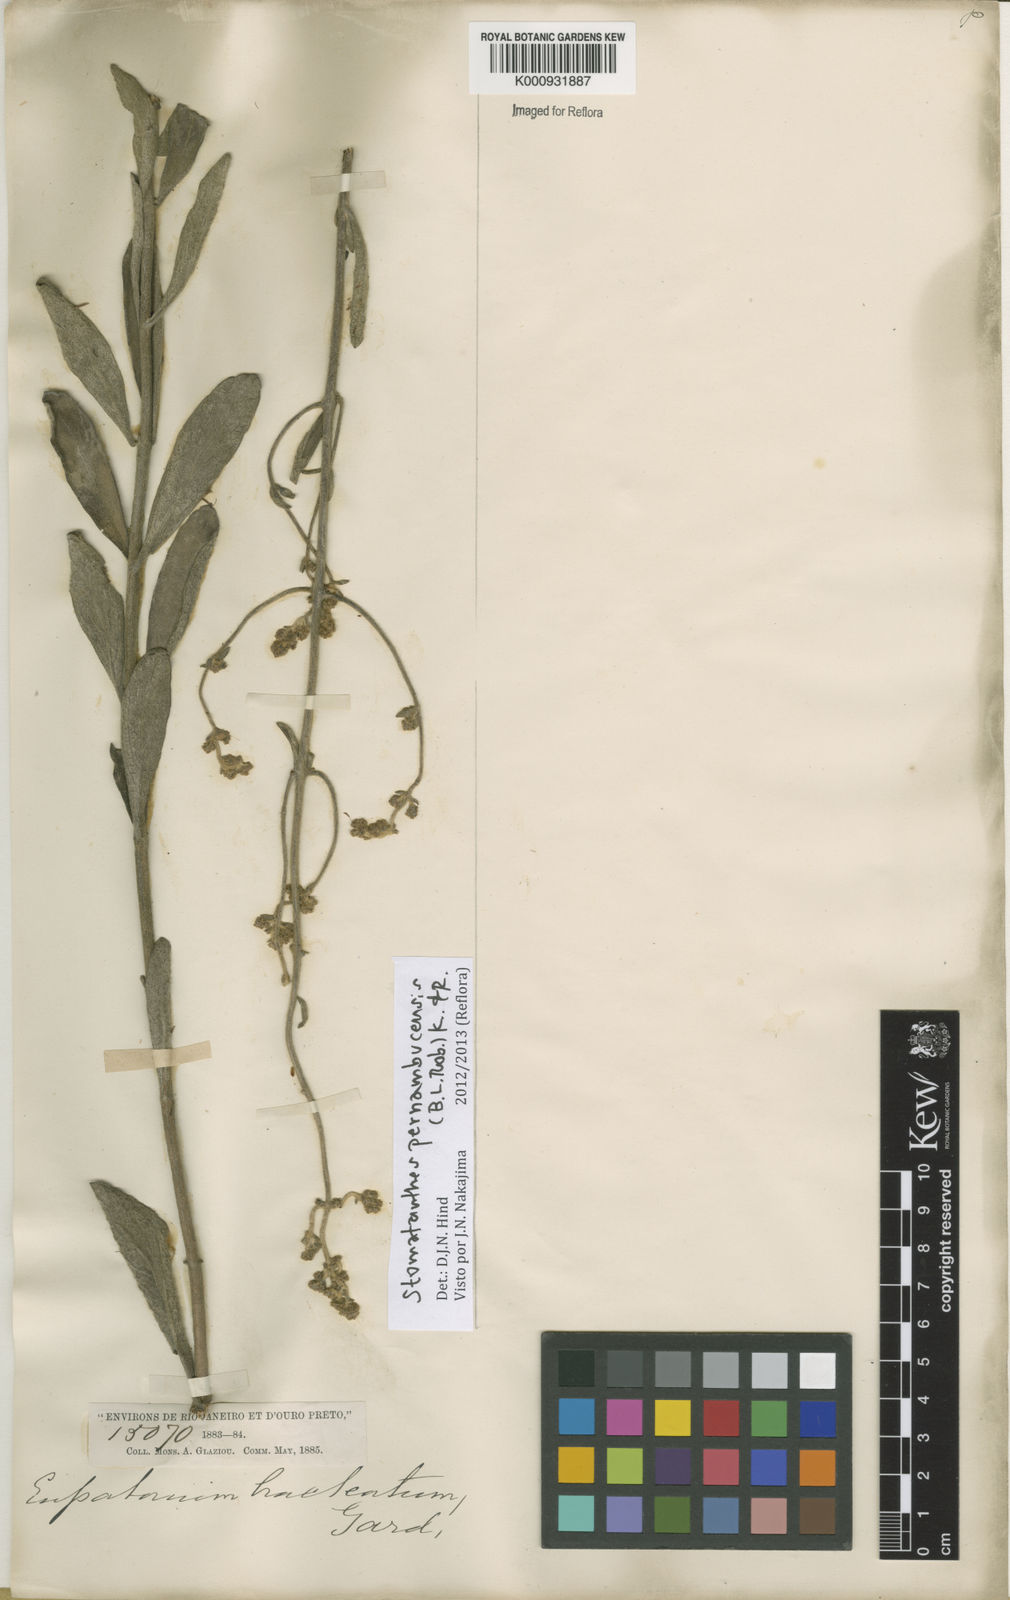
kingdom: Plantae
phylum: Tracheophyta
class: Magnoliopsida
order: Asterales
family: Asteraceae
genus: Stomatanthes
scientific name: Stomatanthes pernambucensis
